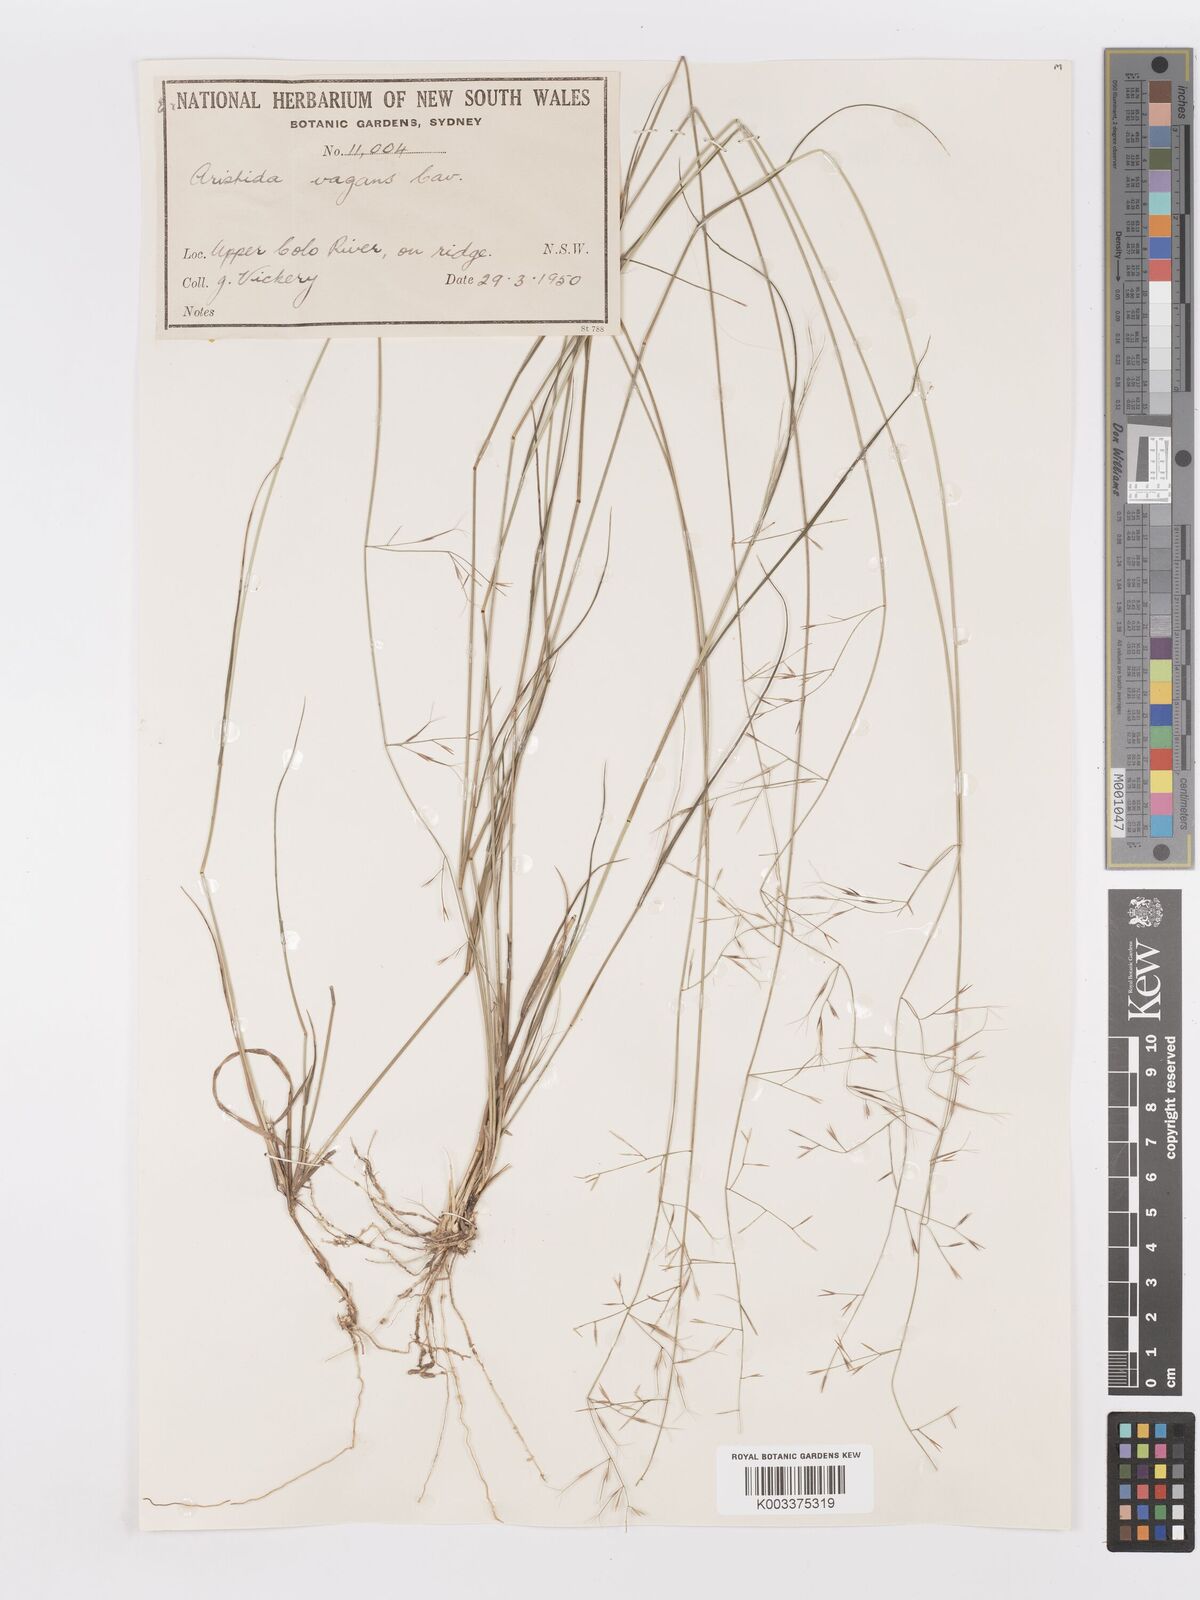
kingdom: Plantae
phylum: Tracheophyta
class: Liliopsida
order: Poales
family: Poaceae
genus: Aristida
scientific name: Aristida vagans
